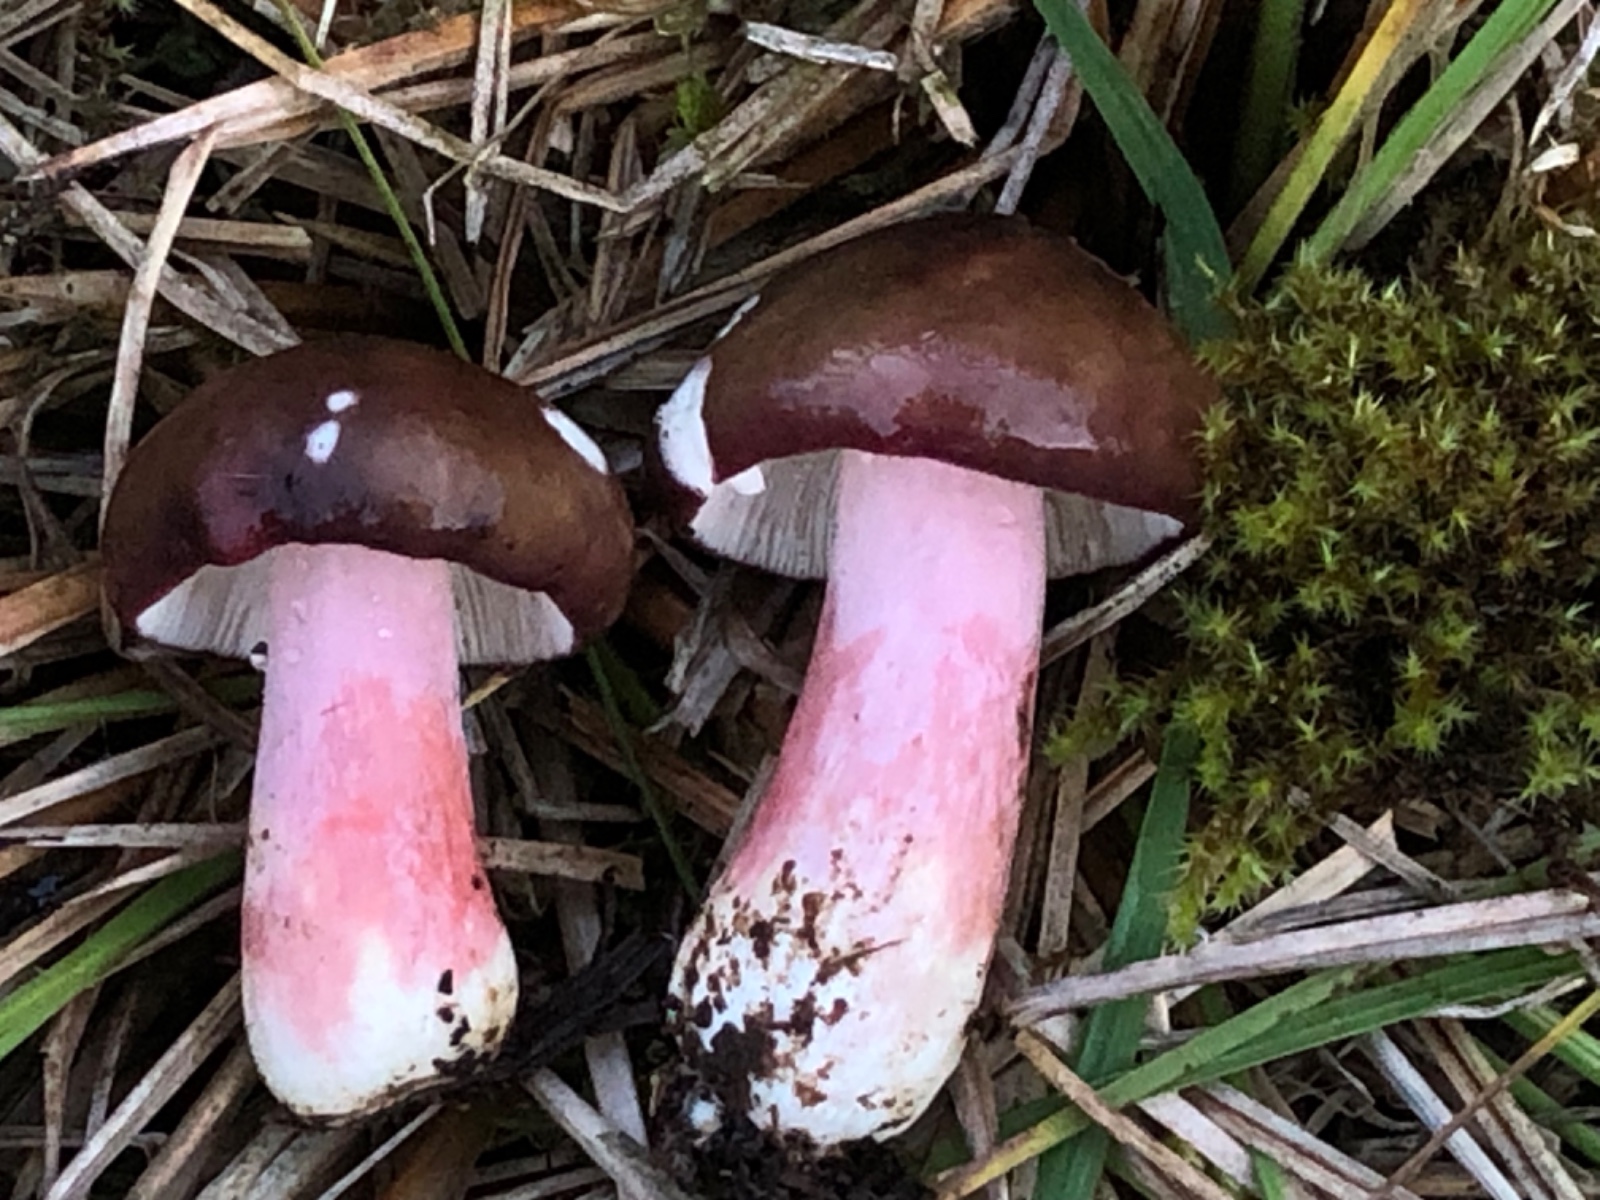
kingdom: Fungi
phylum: Basidiomycota
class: Agaricomycetes
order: Russulales
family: Russulaceae
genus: Russula
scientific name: Russula queletii
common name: Quélets skørhat
